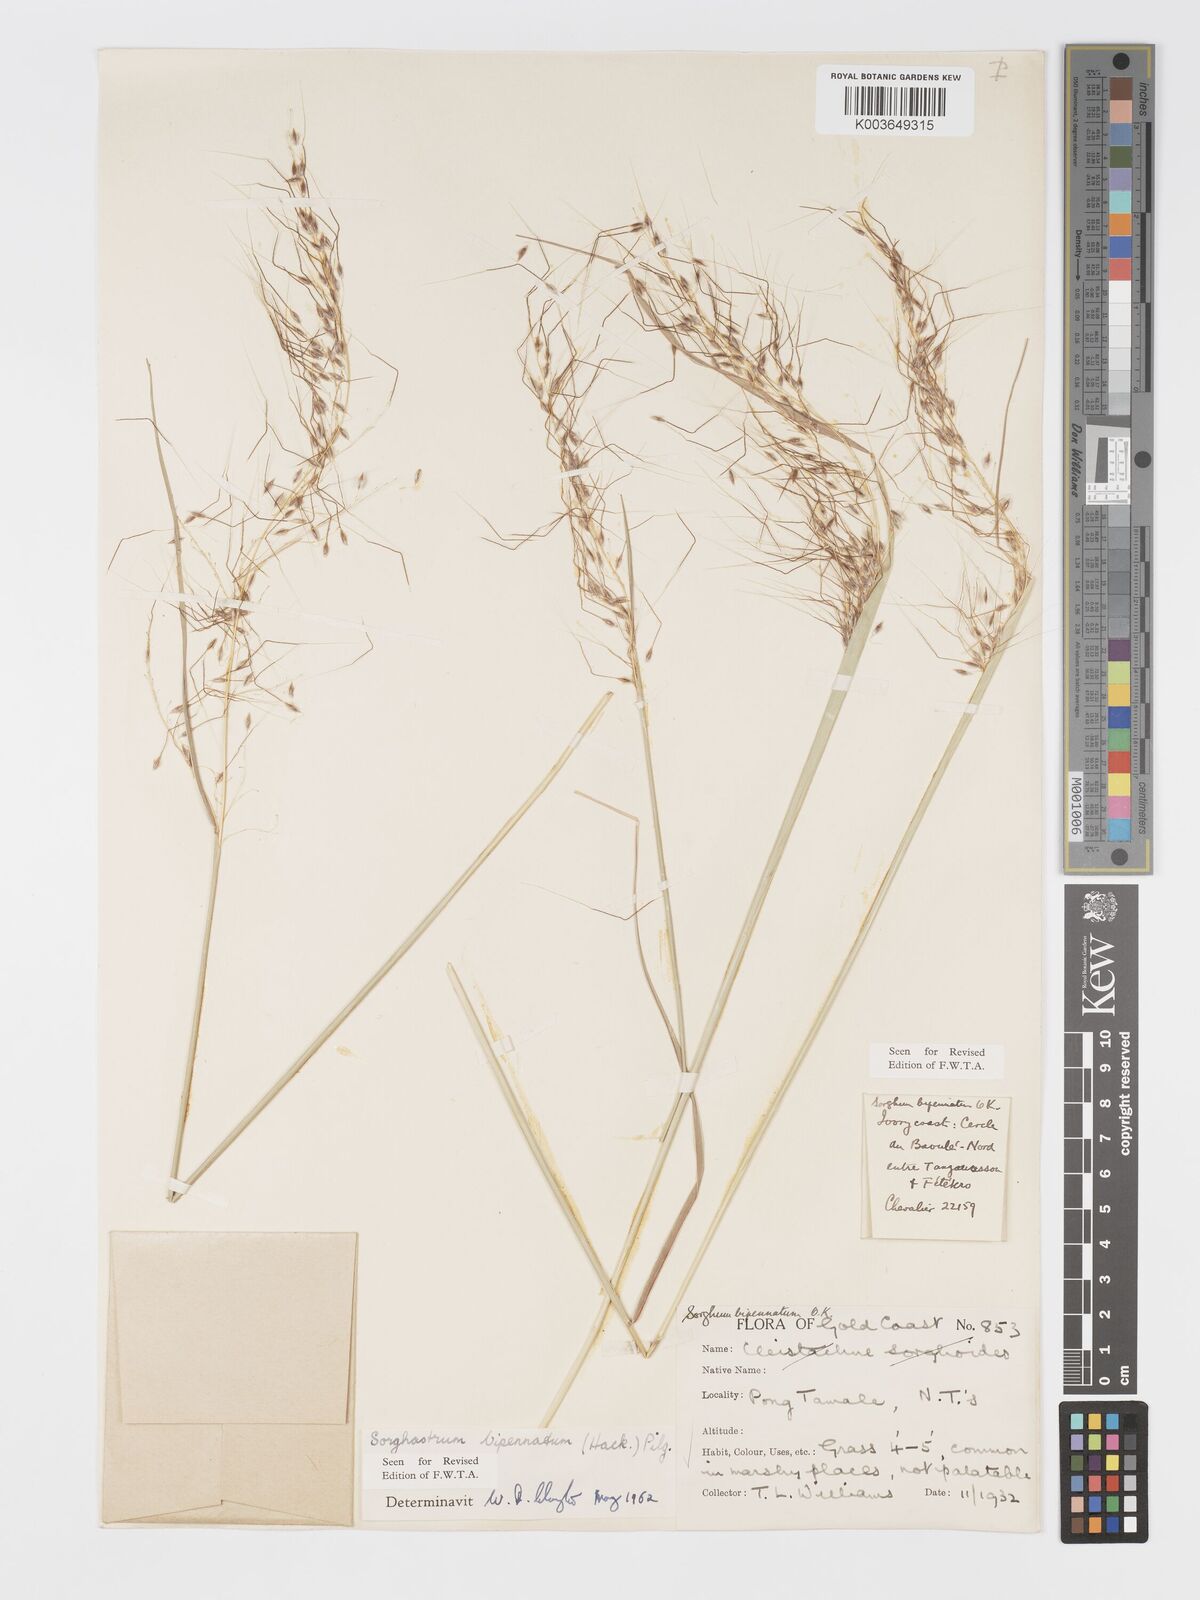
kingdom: Plantae
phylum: Tracheophyta
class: Liliopsida
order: Poales
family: Poaceae
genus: Sorghastrum
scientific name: Sorghastrum incompletum
